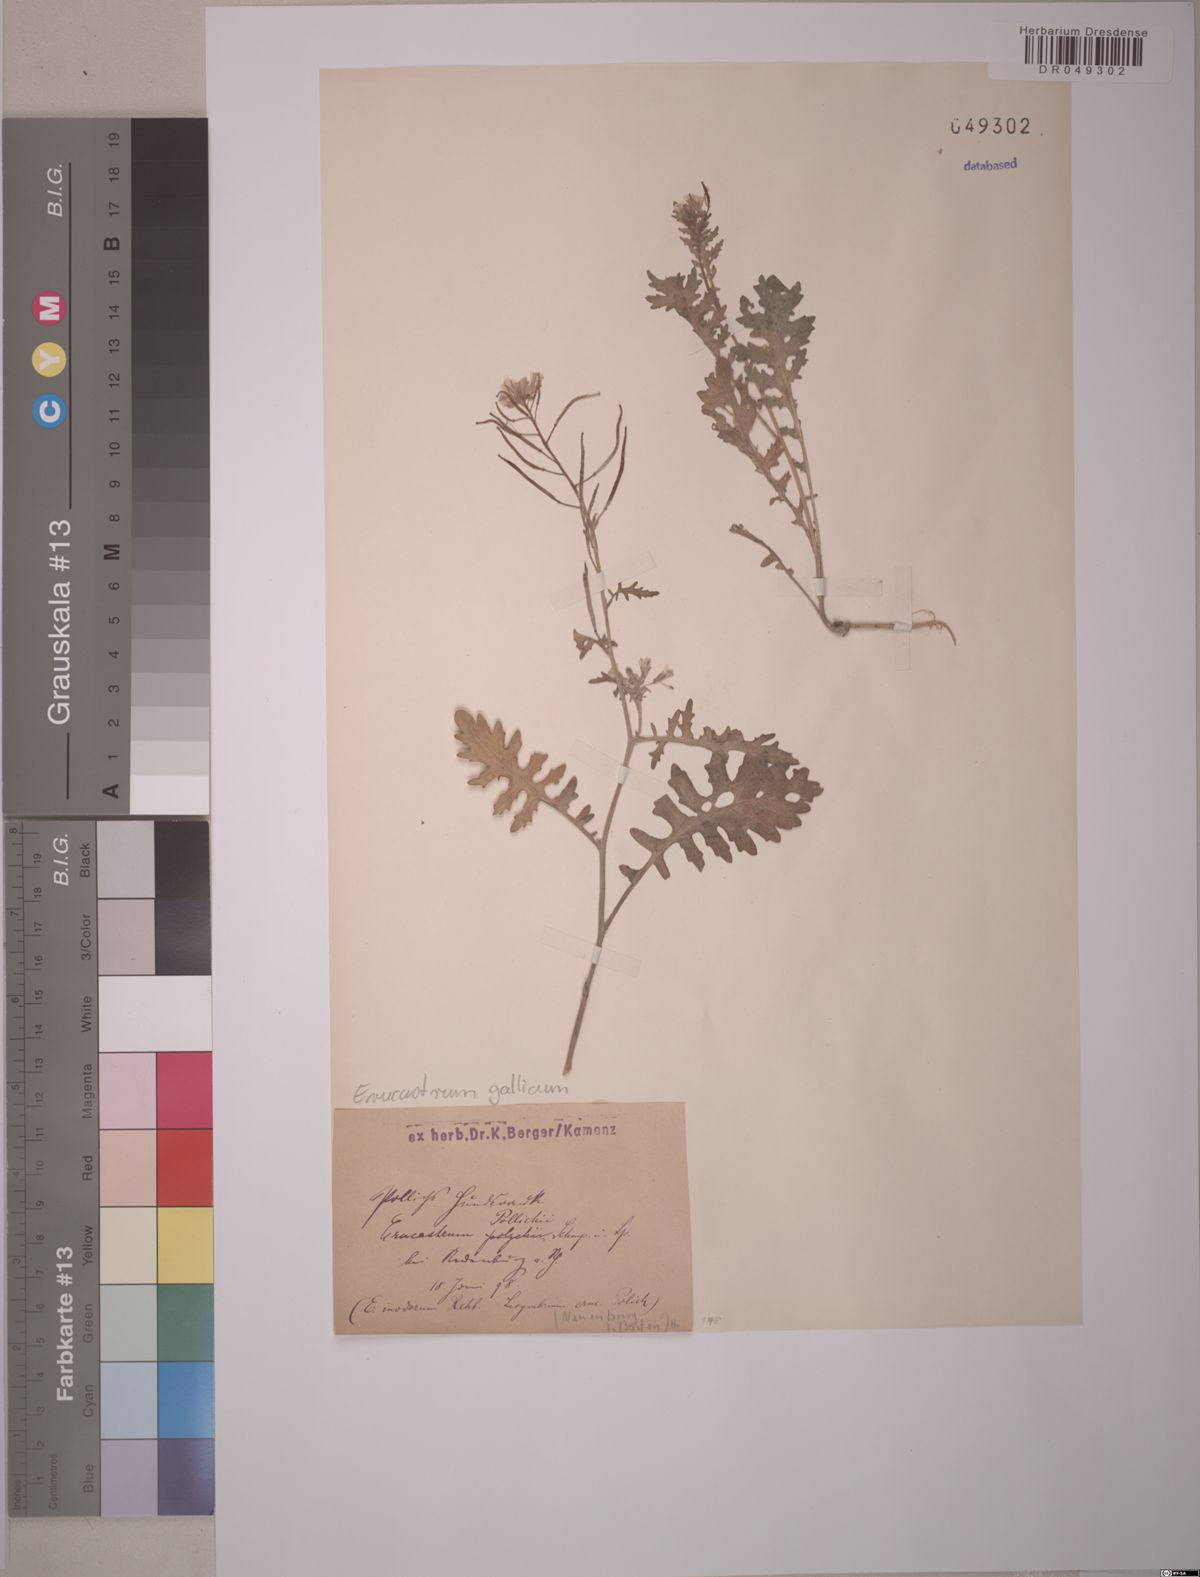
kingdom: Plantae
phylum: Tracheophyta
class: Magnoliopsida
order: Brassicales
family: Brassicaceae
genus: Erucastrum
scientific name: Erucastrum gallicum
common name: Hairy rocket
